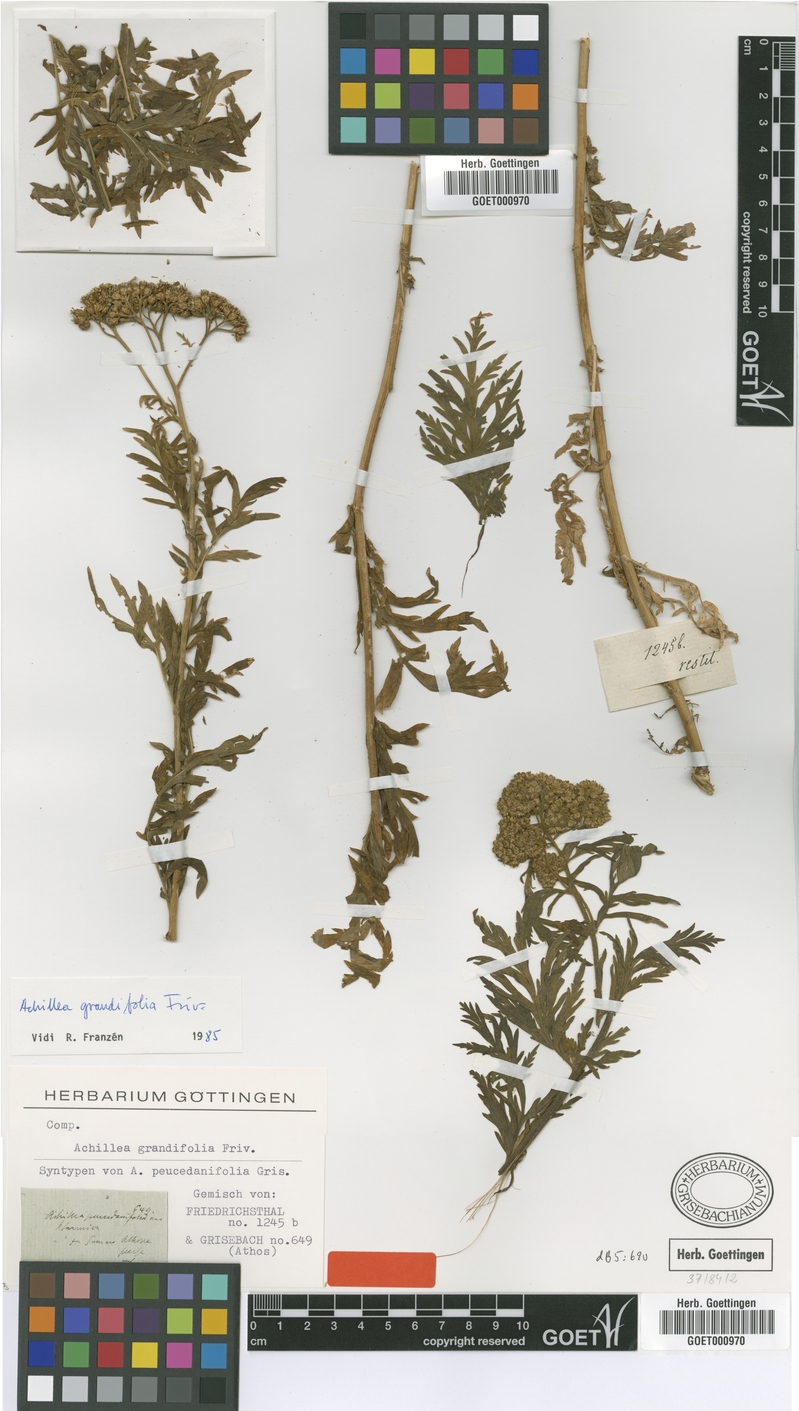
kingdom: Plantae
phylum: Tracheophyta
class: Magnoliopsida
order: Asterales
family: Asteraceae
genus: Achillea
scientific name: Achillea grandifolia
